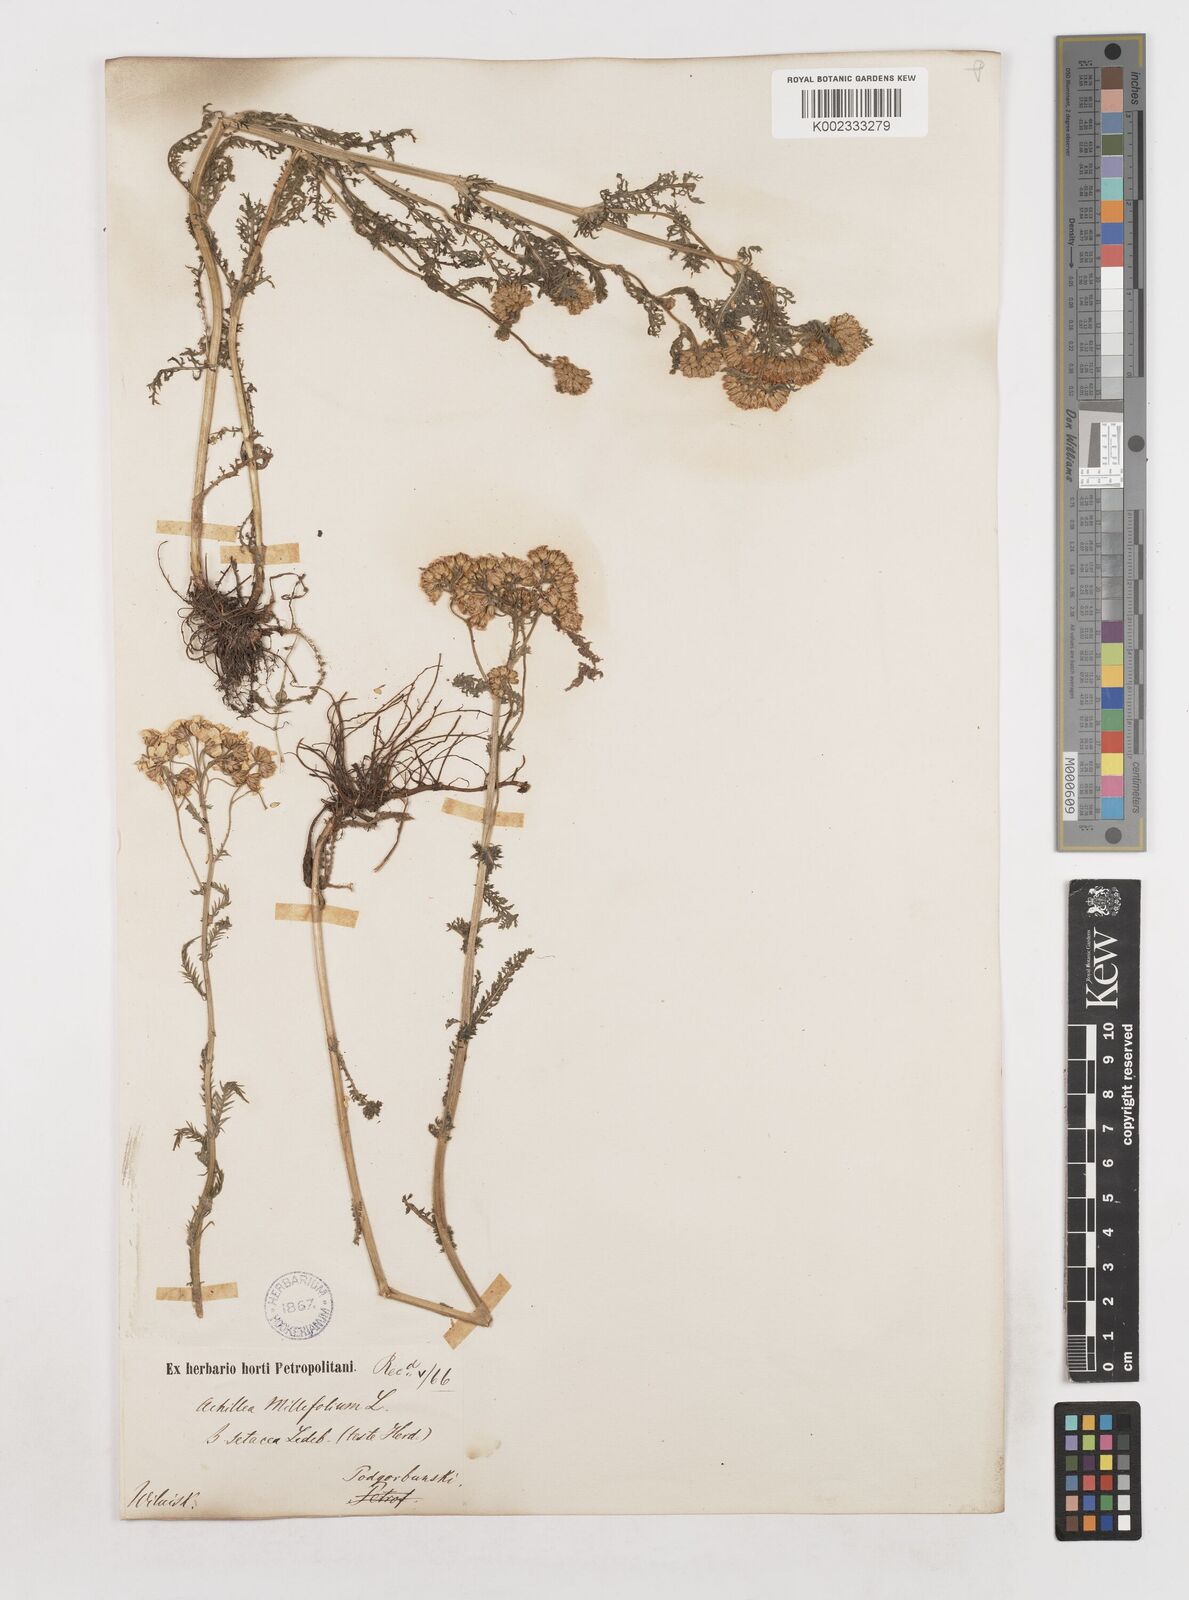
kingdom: Plantae
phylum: Tracheophyta
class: Magnoliopsida
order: Asterales
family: Asteraceae
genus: Achillea
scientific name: Achillea setacea
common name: Bristly yarrow
